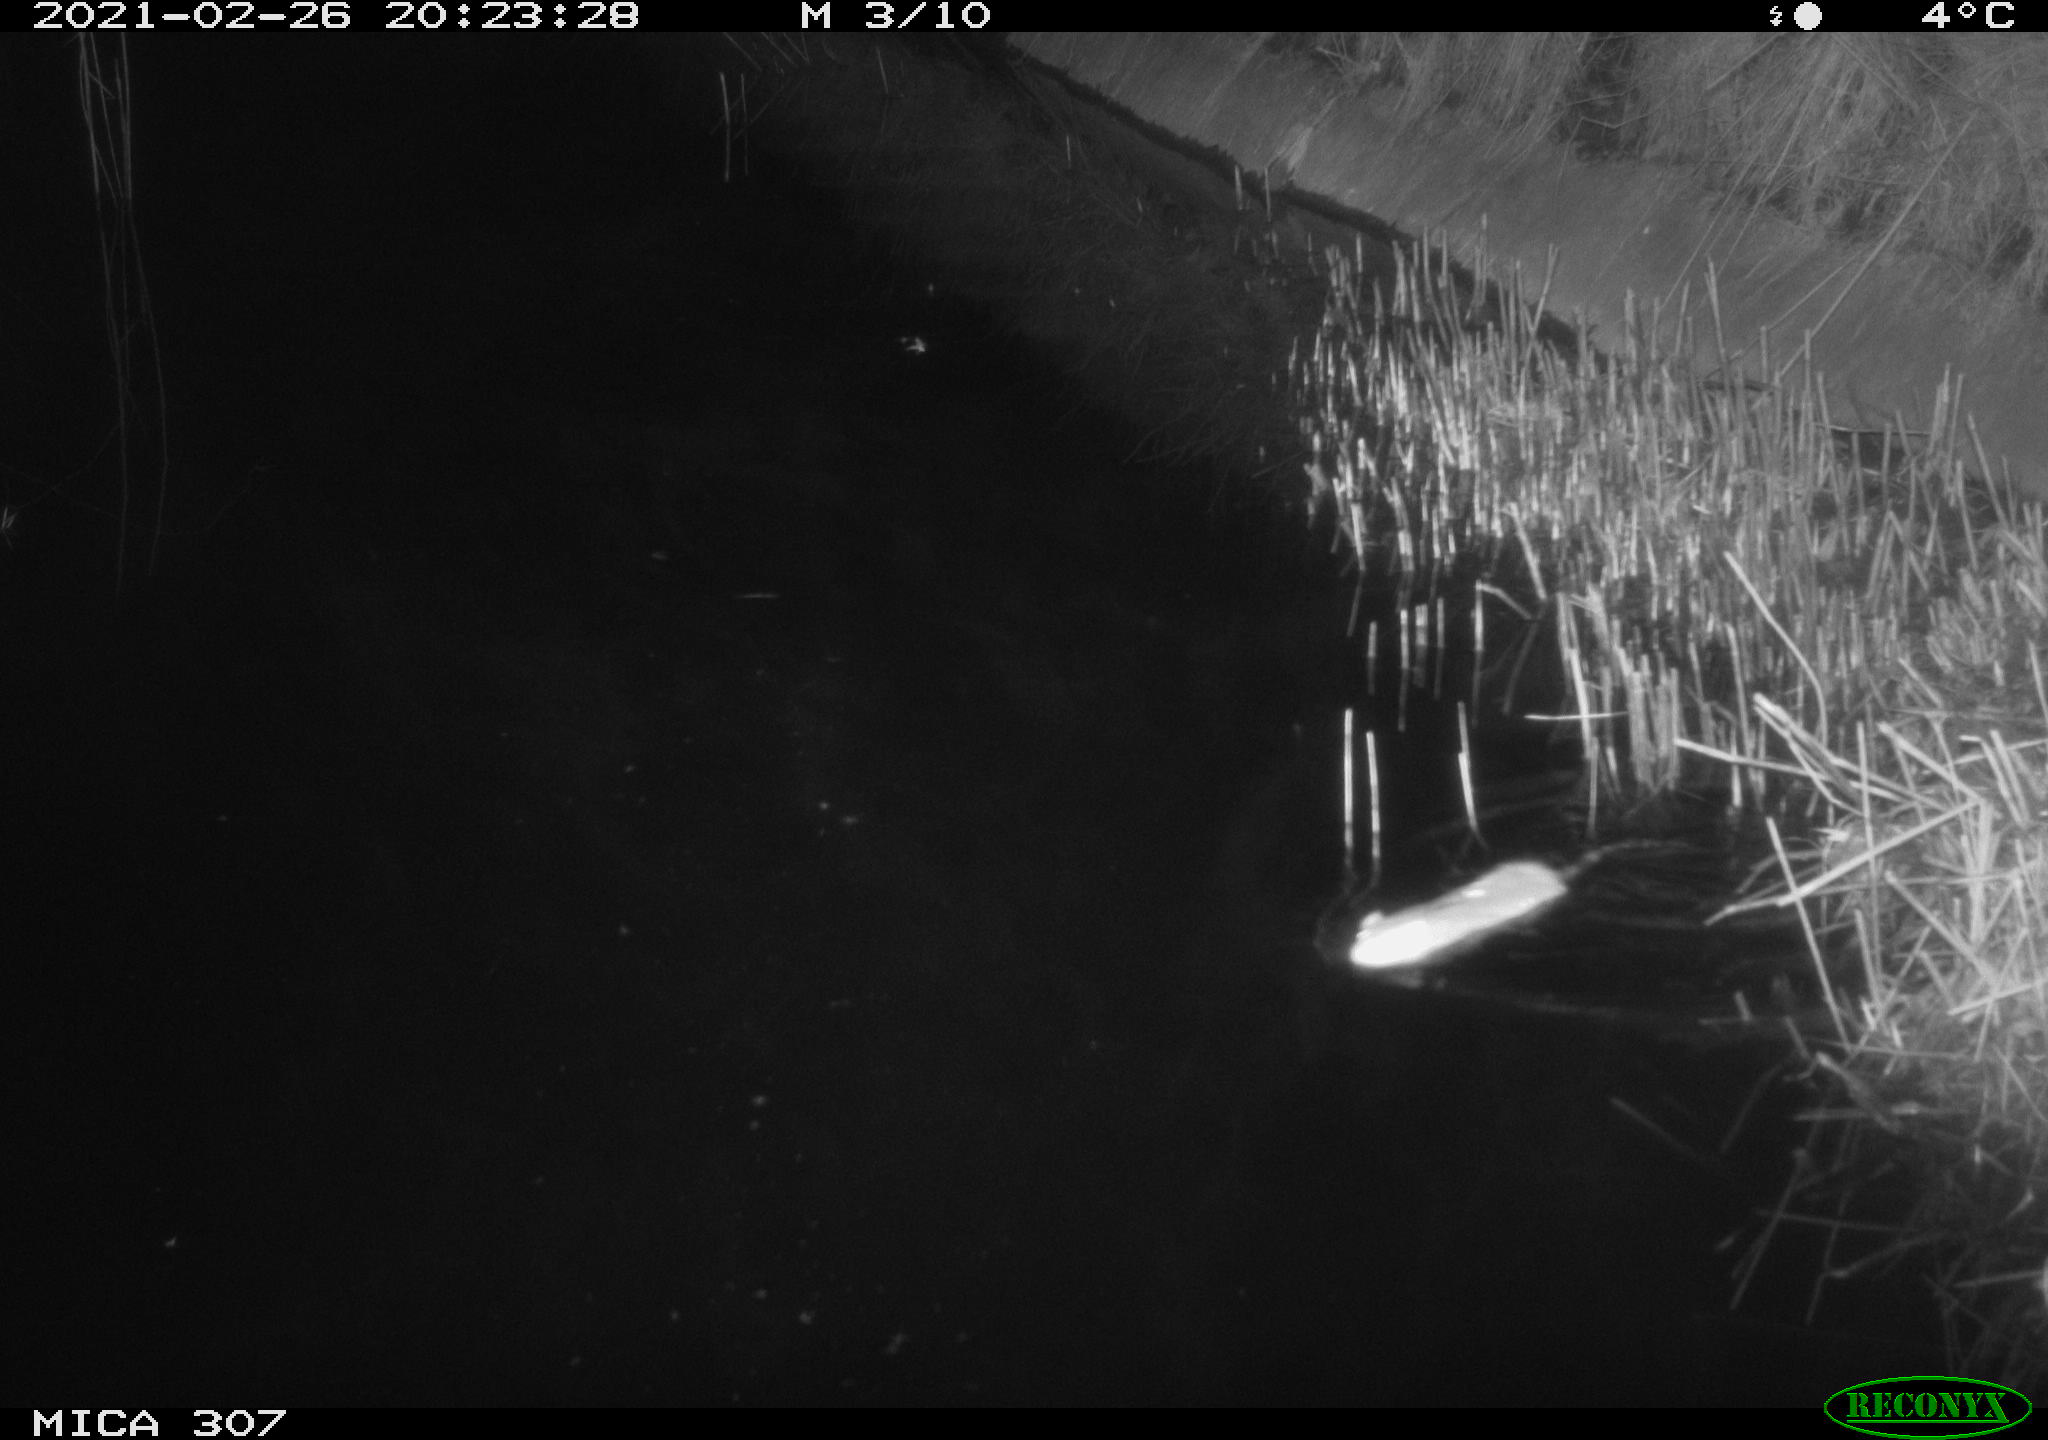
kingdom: Animalia
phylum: Chordata
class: Mammalia
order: Rodentia
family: Muridae
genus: Rattus
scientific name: Rattus norvegicus
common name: Brown rat
